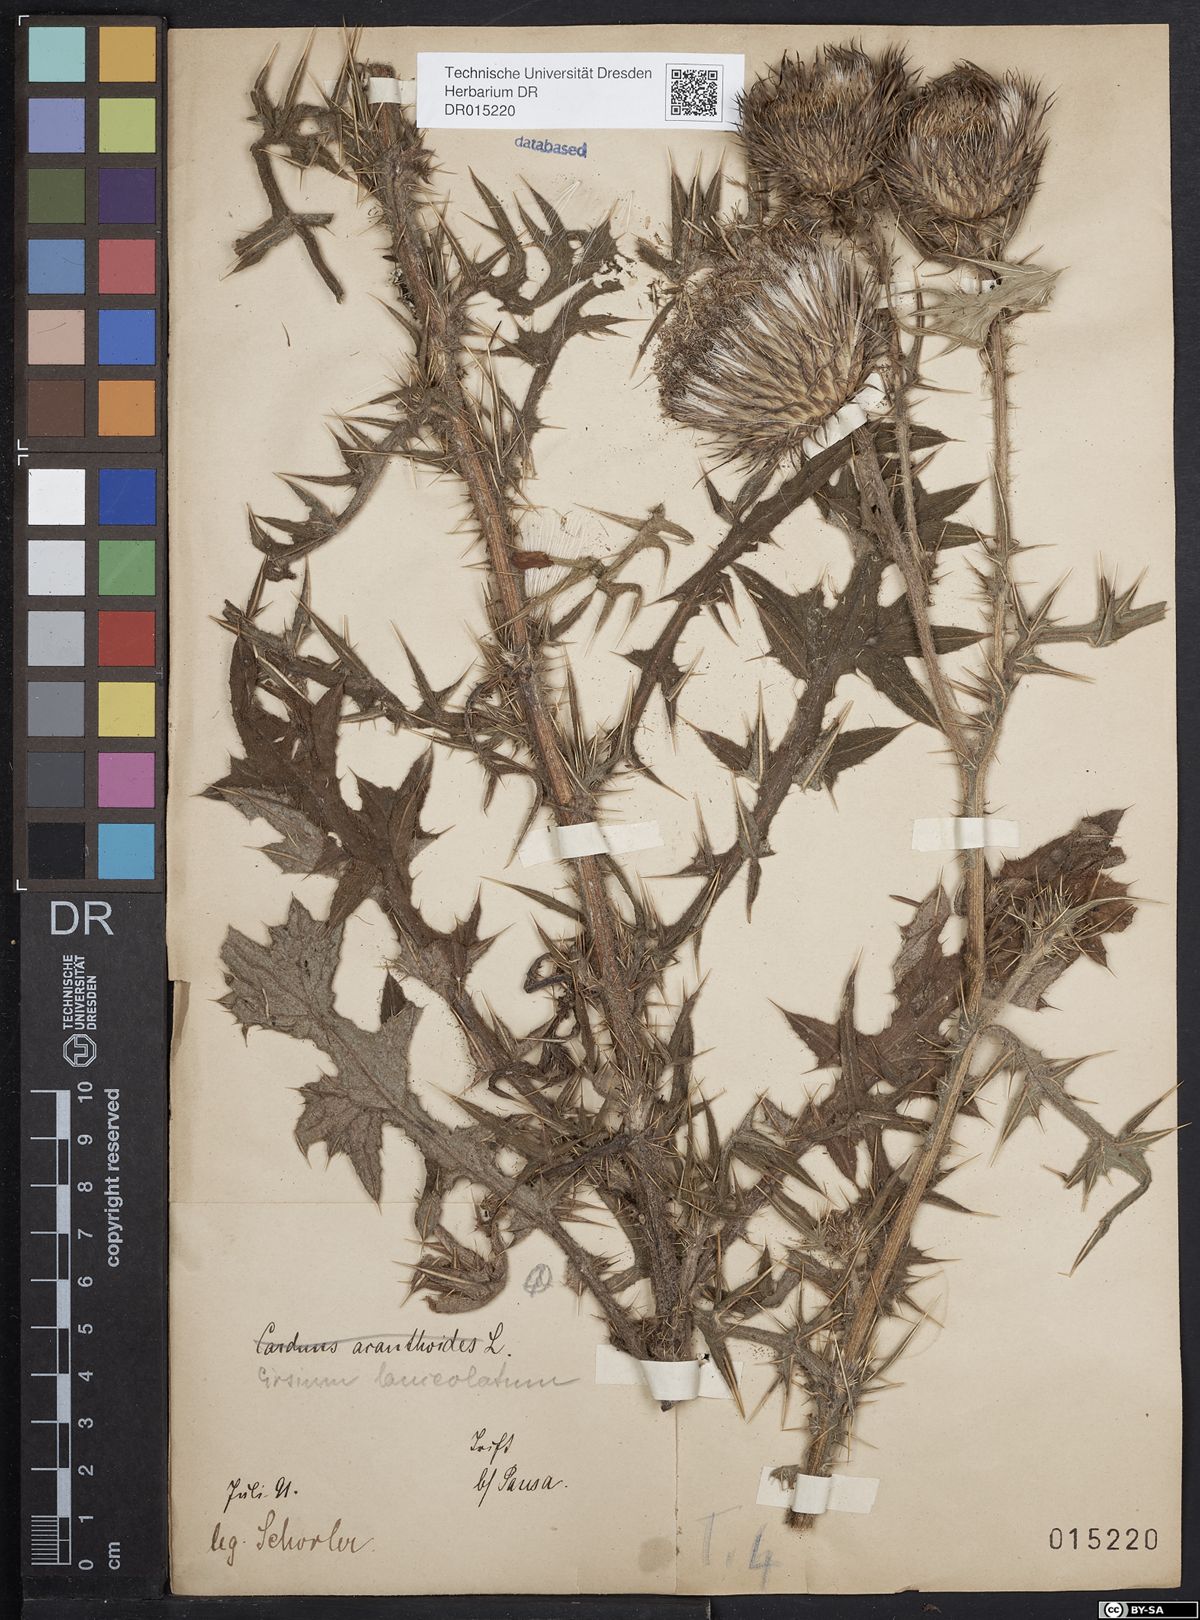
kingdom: Plantae
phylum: Tracheophyta
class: Magnoliopsida
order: Asterales
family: Asteraceae
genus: Cirsium
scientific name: Cirsium vulgare
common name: Bull thistle
